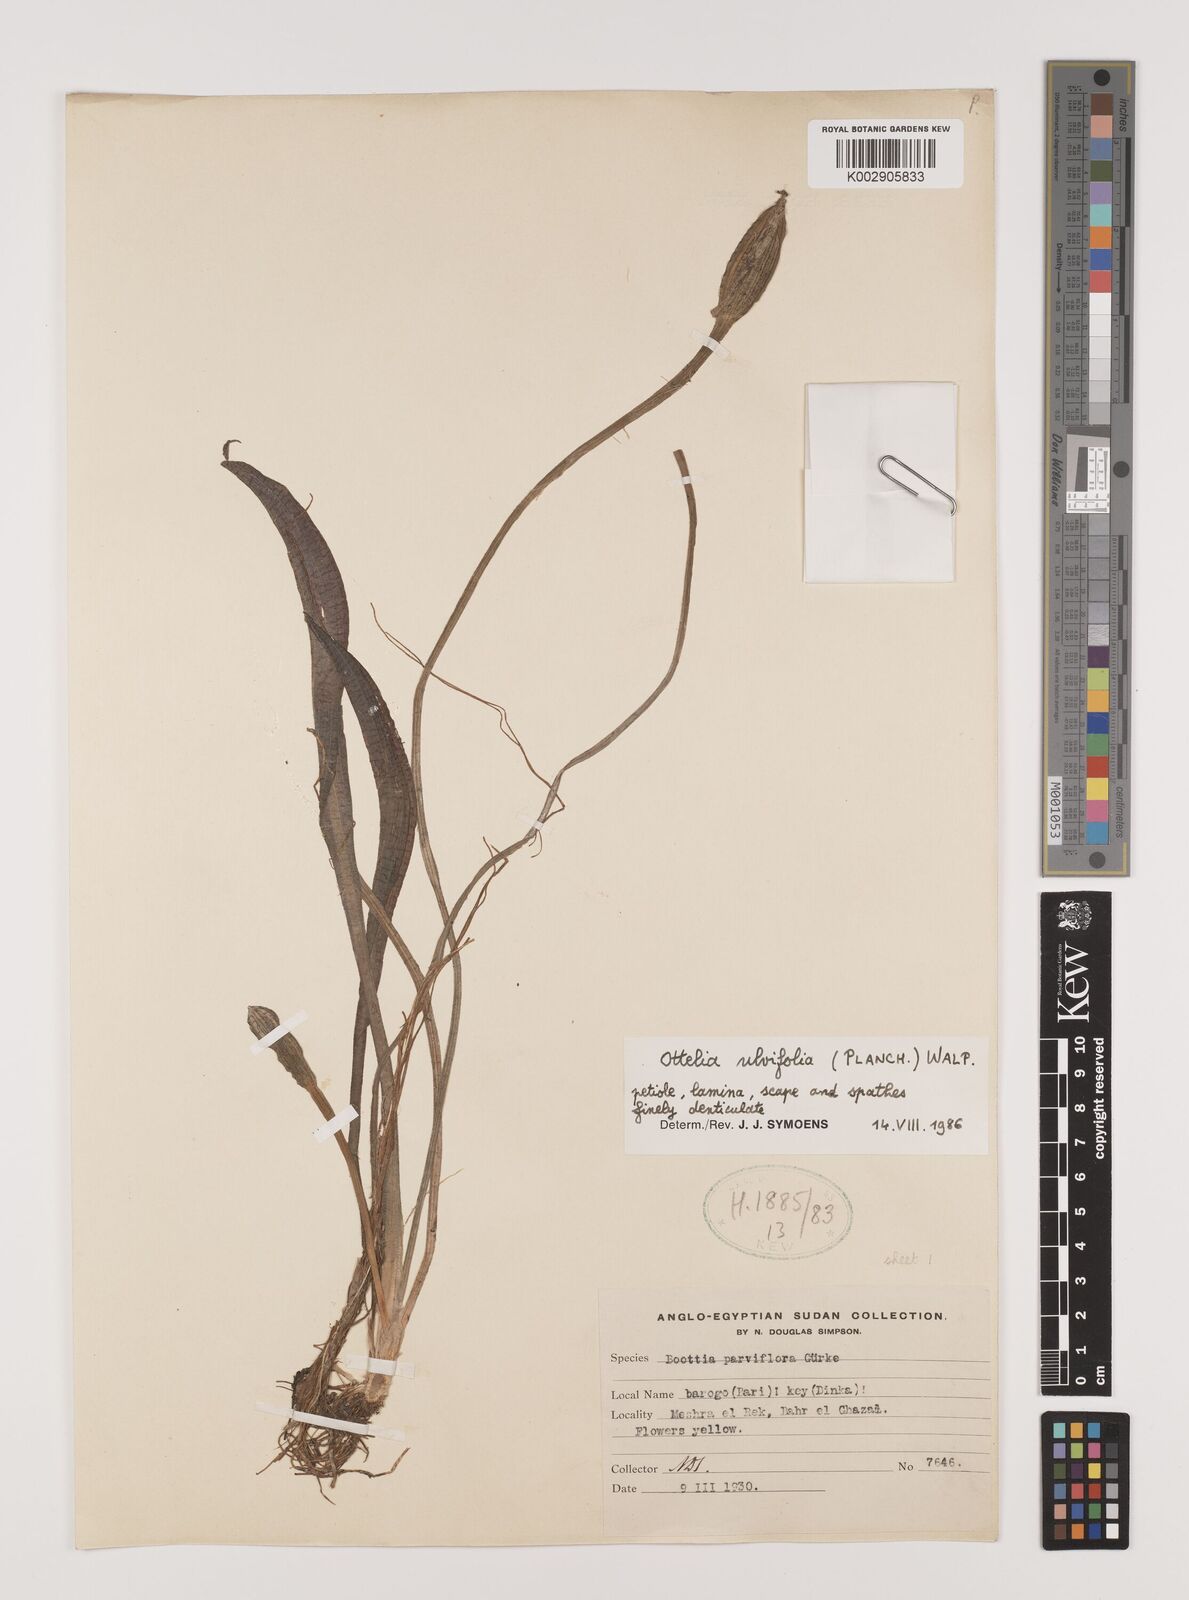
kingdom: Plantae
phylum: Tracheophyta
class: Liliopsida
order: Alismatales
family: Hydrocharitaceae
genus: Ottelia
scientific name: Ottelia ulvifolia
